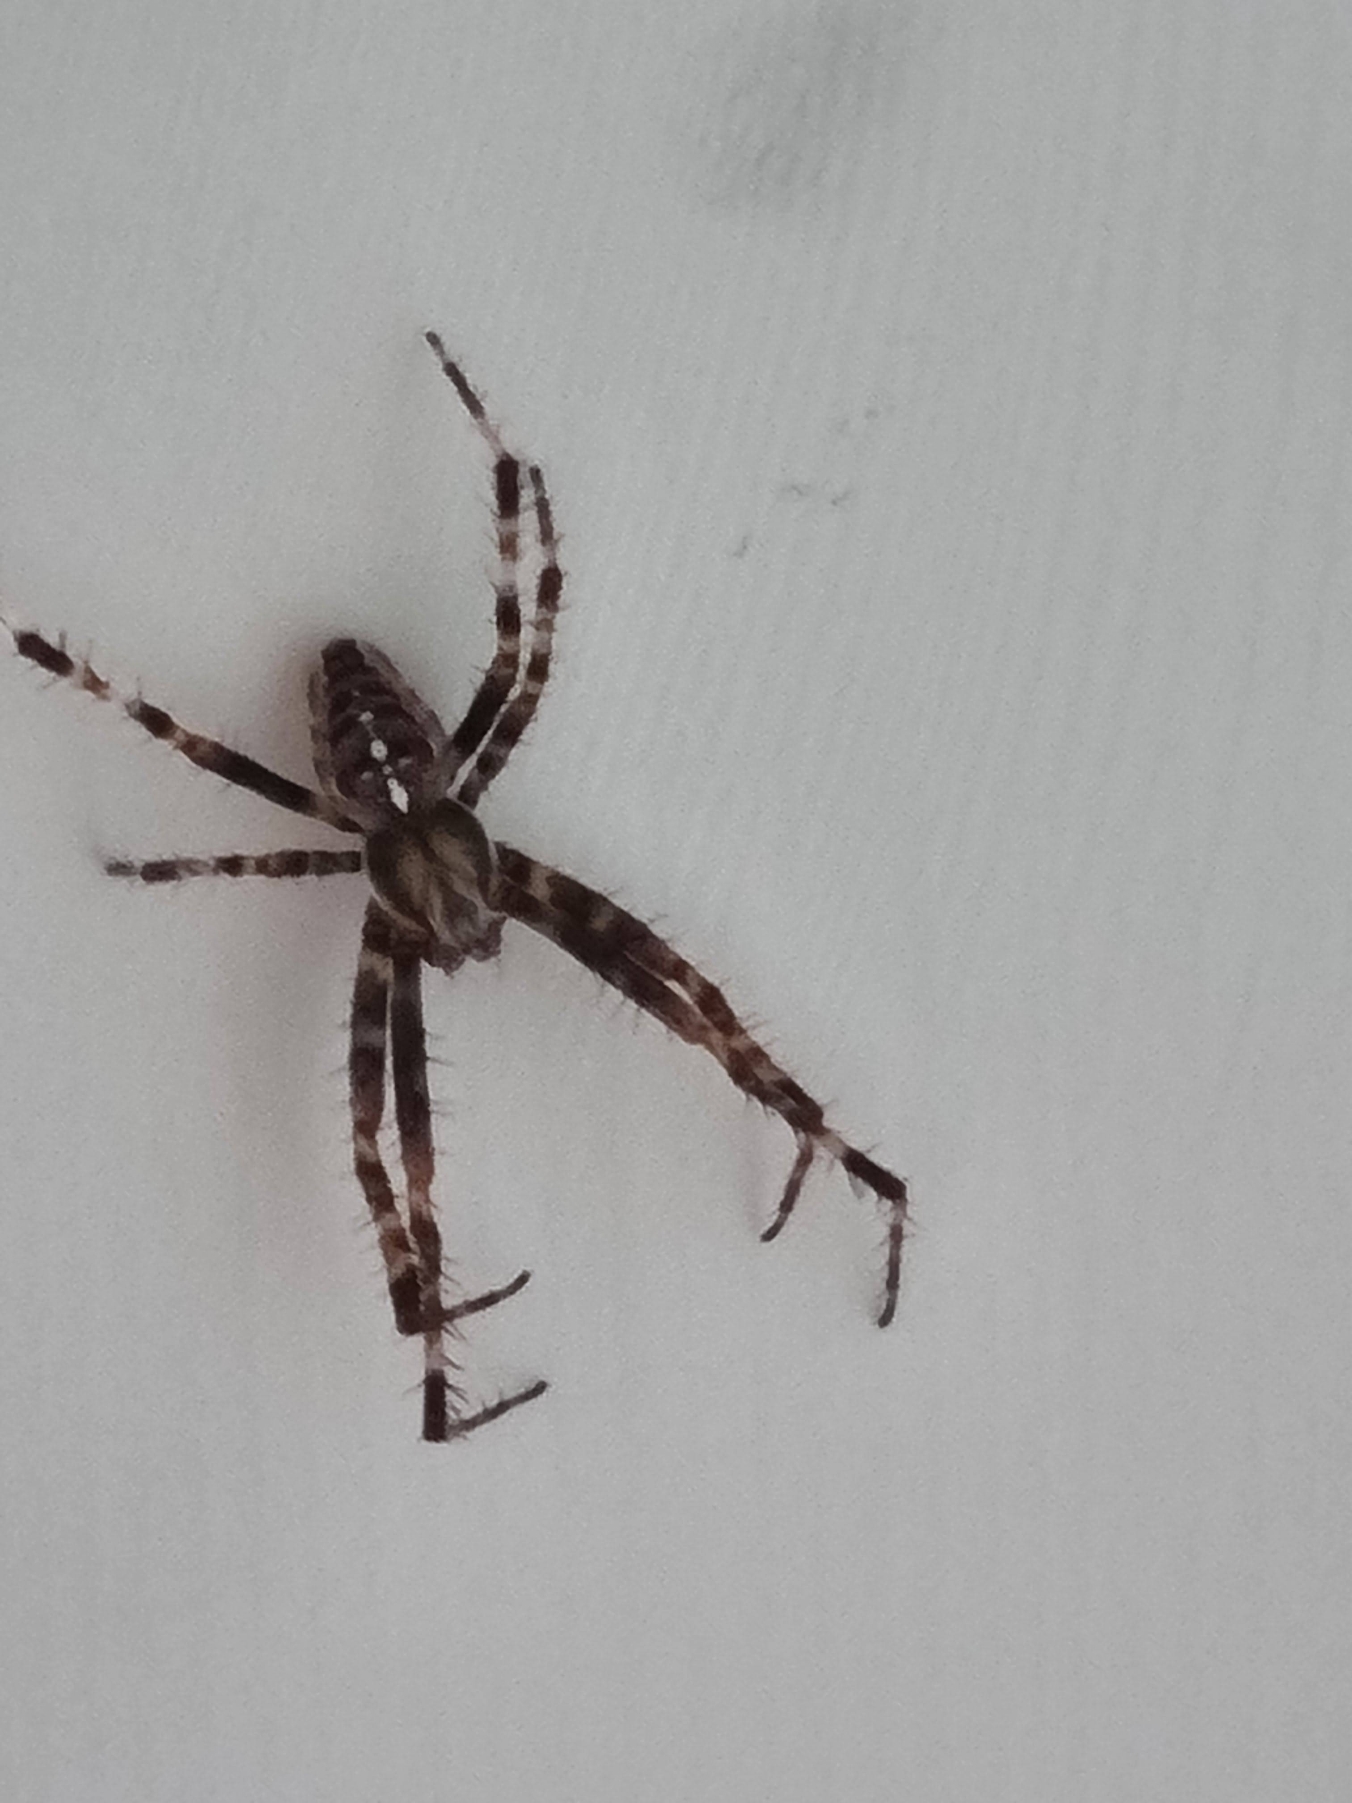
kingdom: Animalia
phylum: Arthropoda
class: Arachnida
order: Araneae
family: Araneidae
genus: Araneus
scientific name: Araneus diadematus
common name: Korsedderkop
